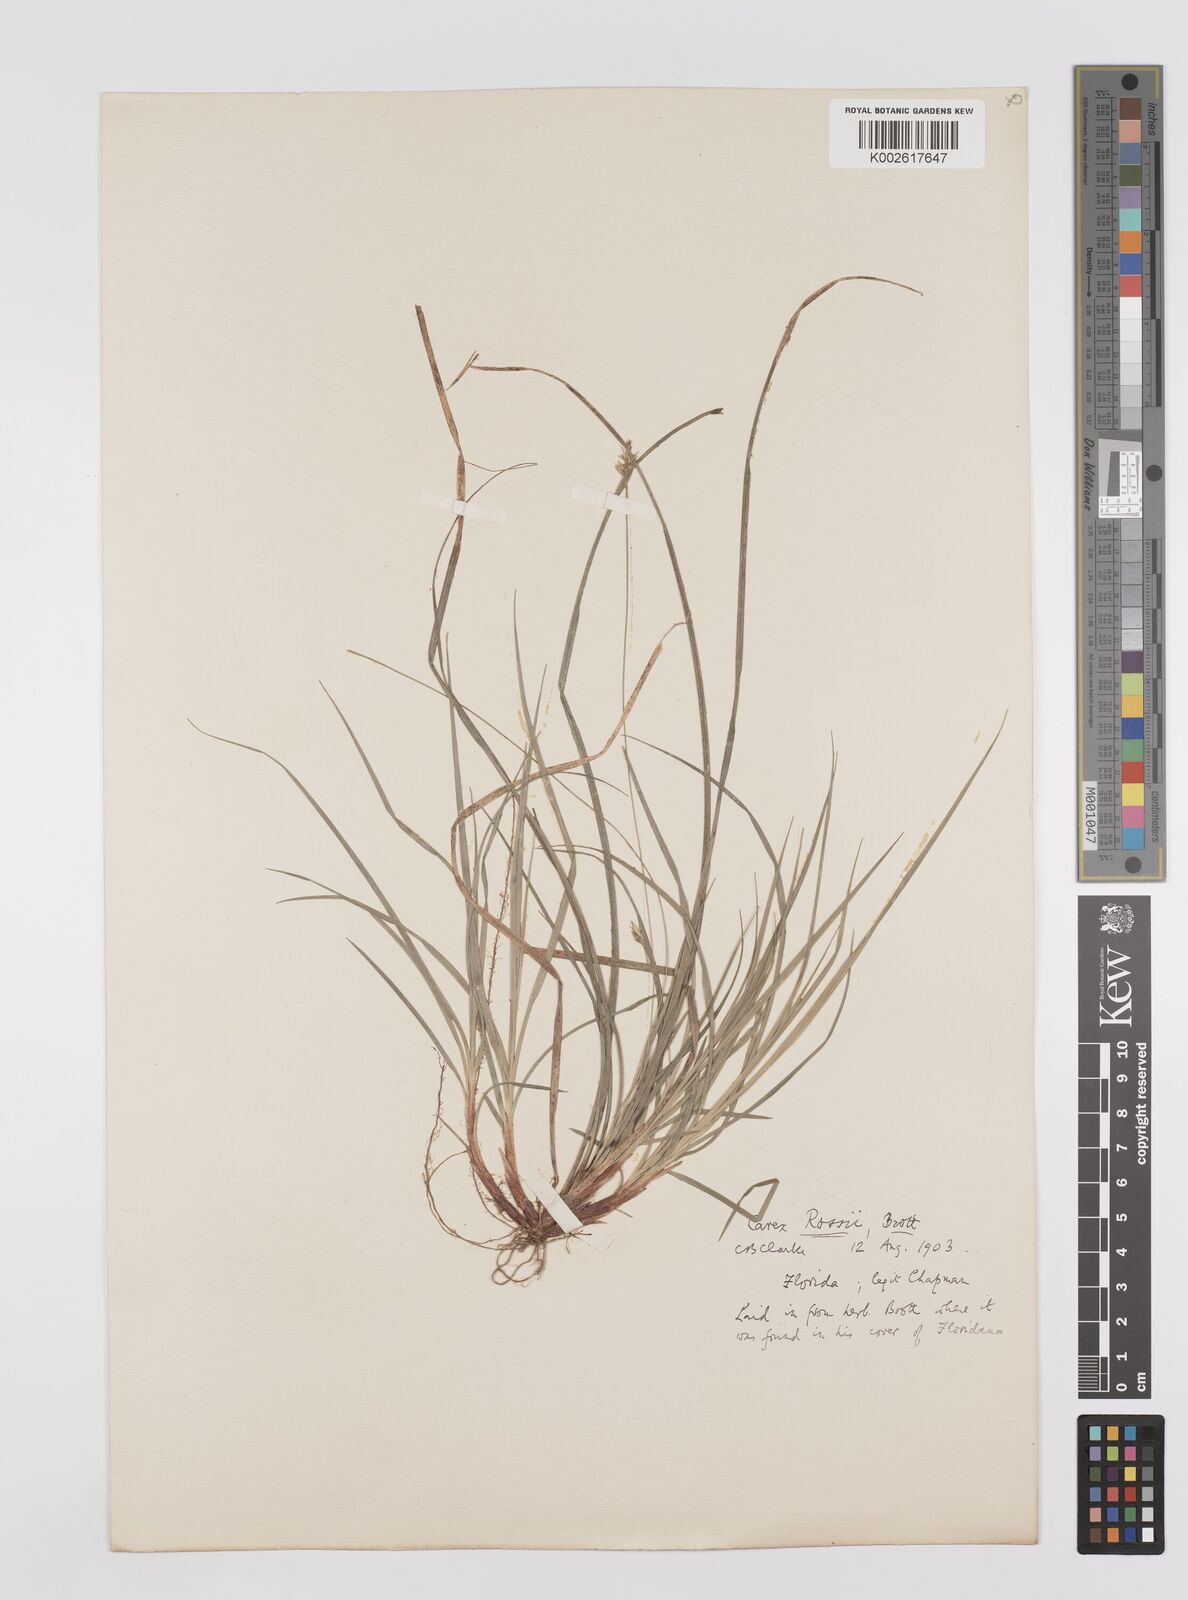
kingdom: Plantae
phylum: Tracheophyta
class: Liliopsida
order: Poales
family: Cyperaceae
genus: Carex
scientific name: Carex rossii
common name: Ross' sedge
